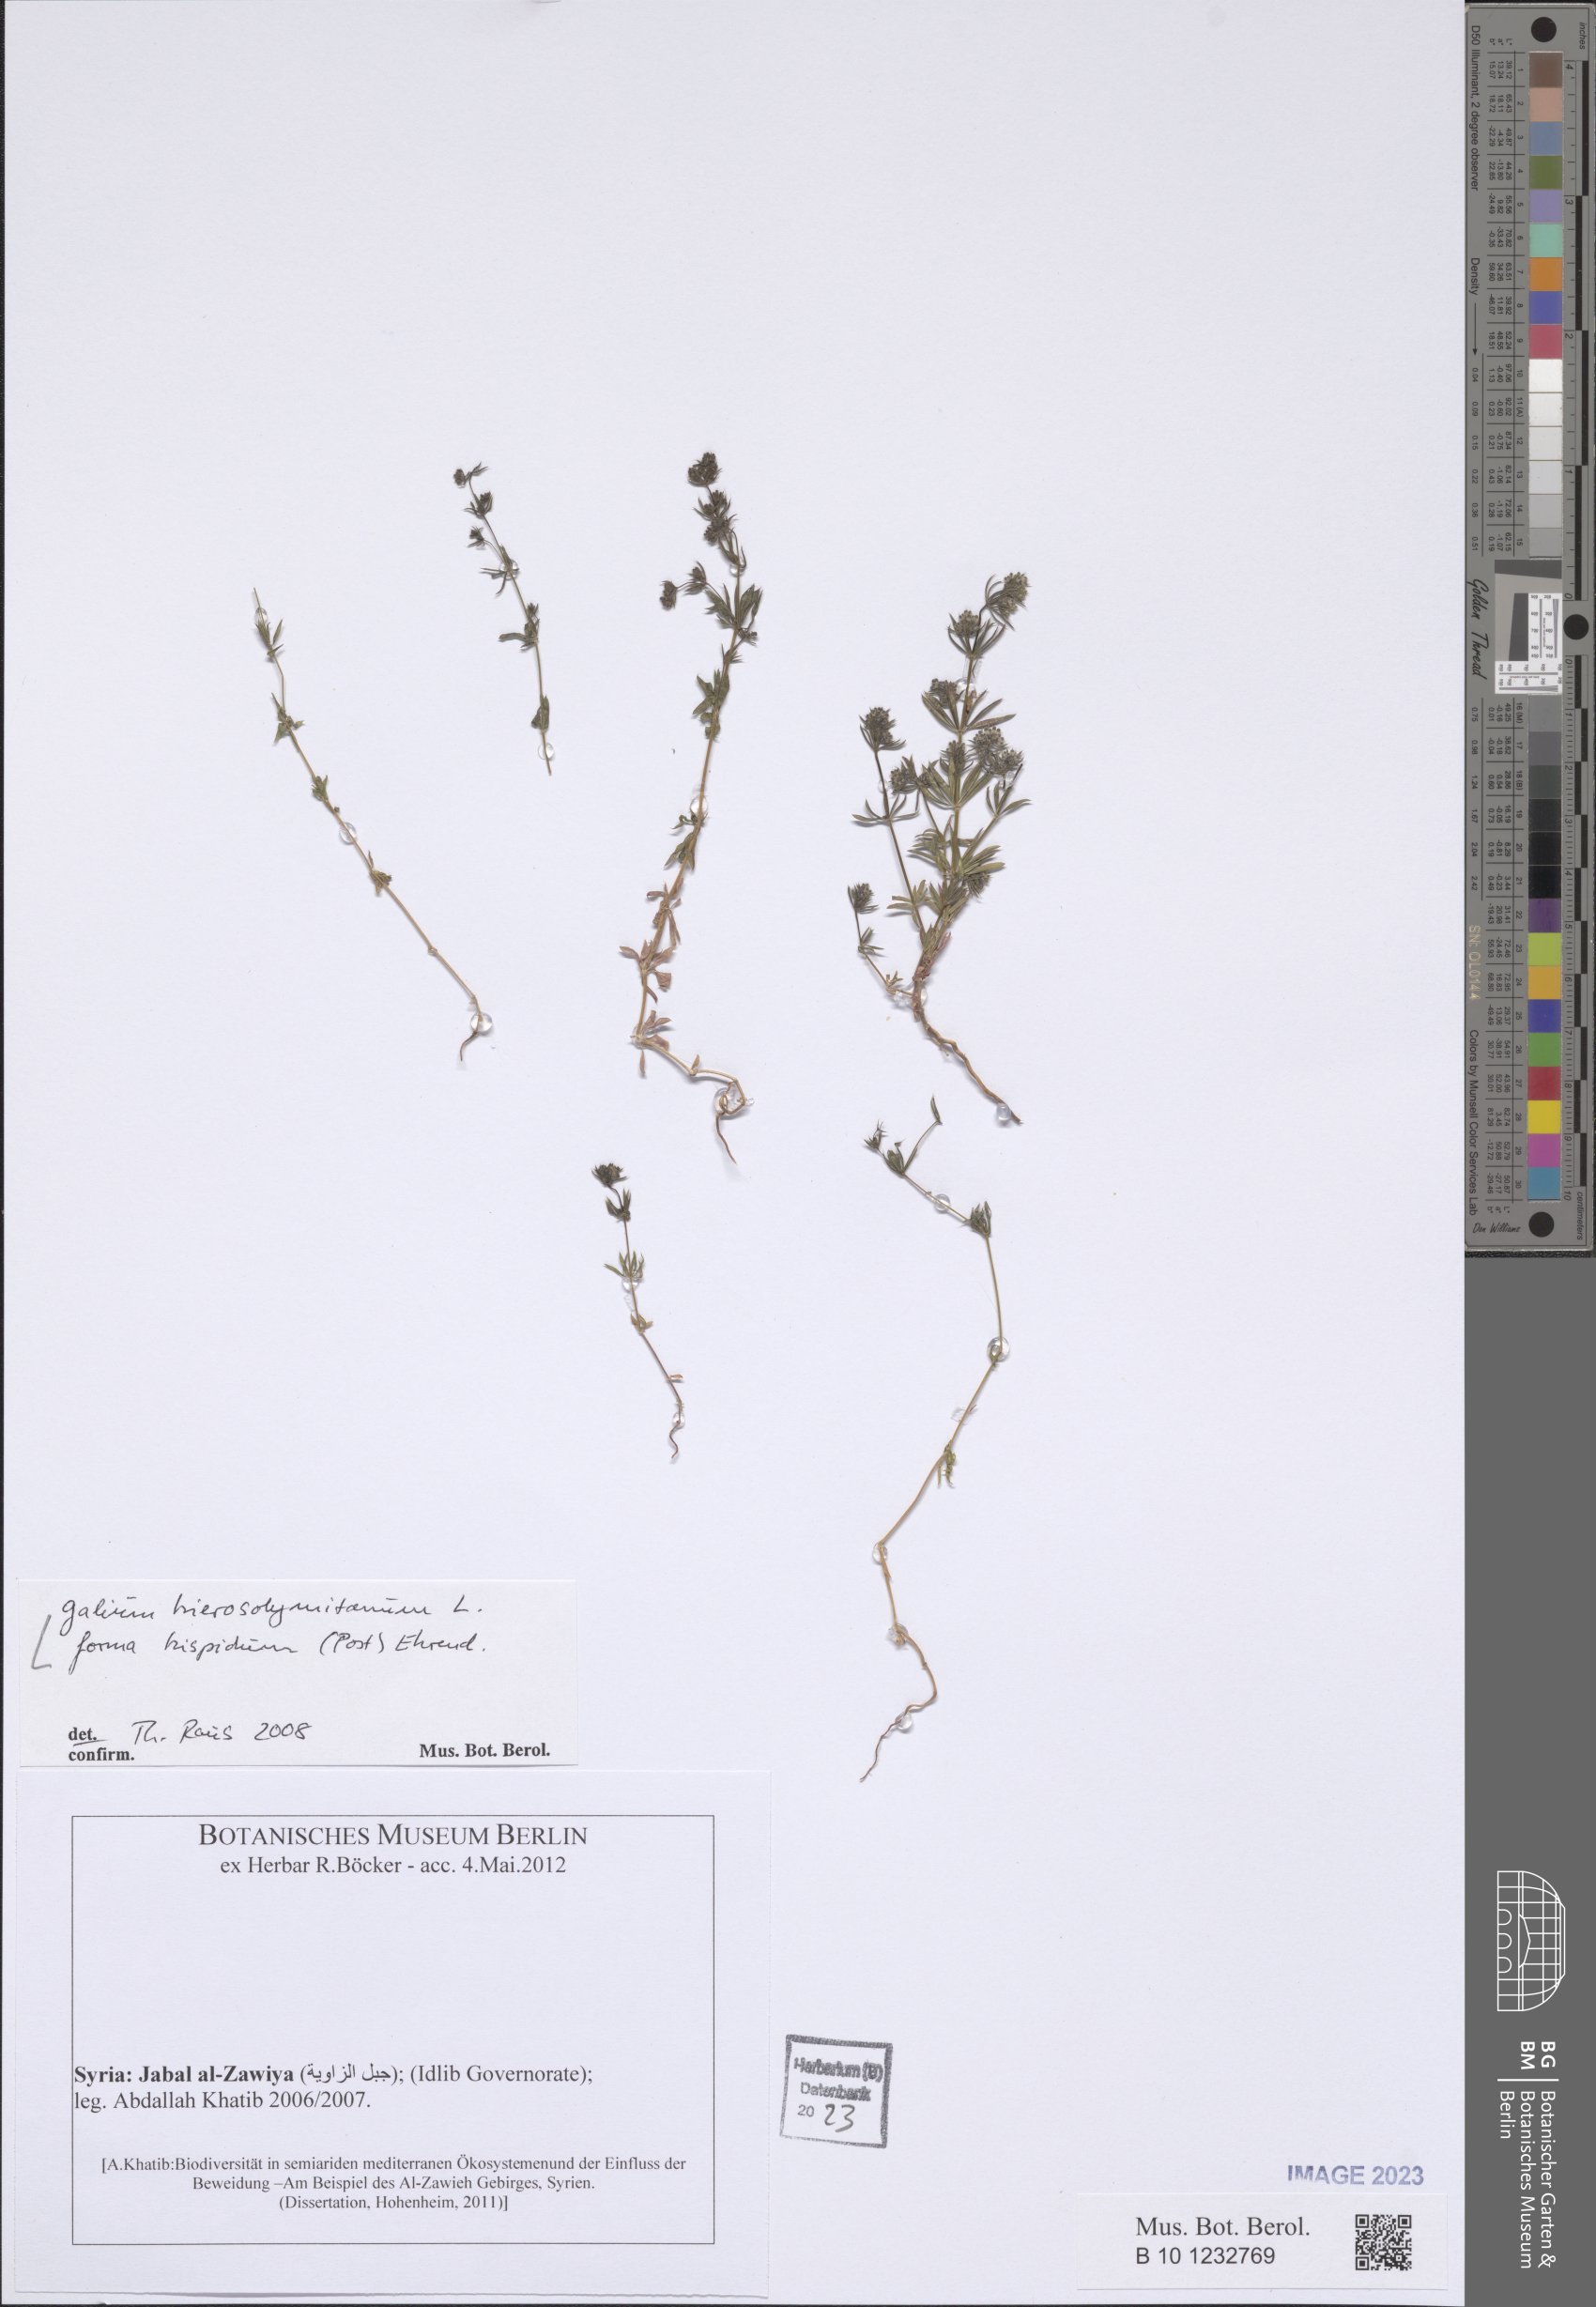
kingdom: Plantae
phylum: Tracheophyta
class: Magnoliopsida
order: Gentianales
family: Rubiaceae
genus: Galium
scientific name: Galium hierosolymitanum
